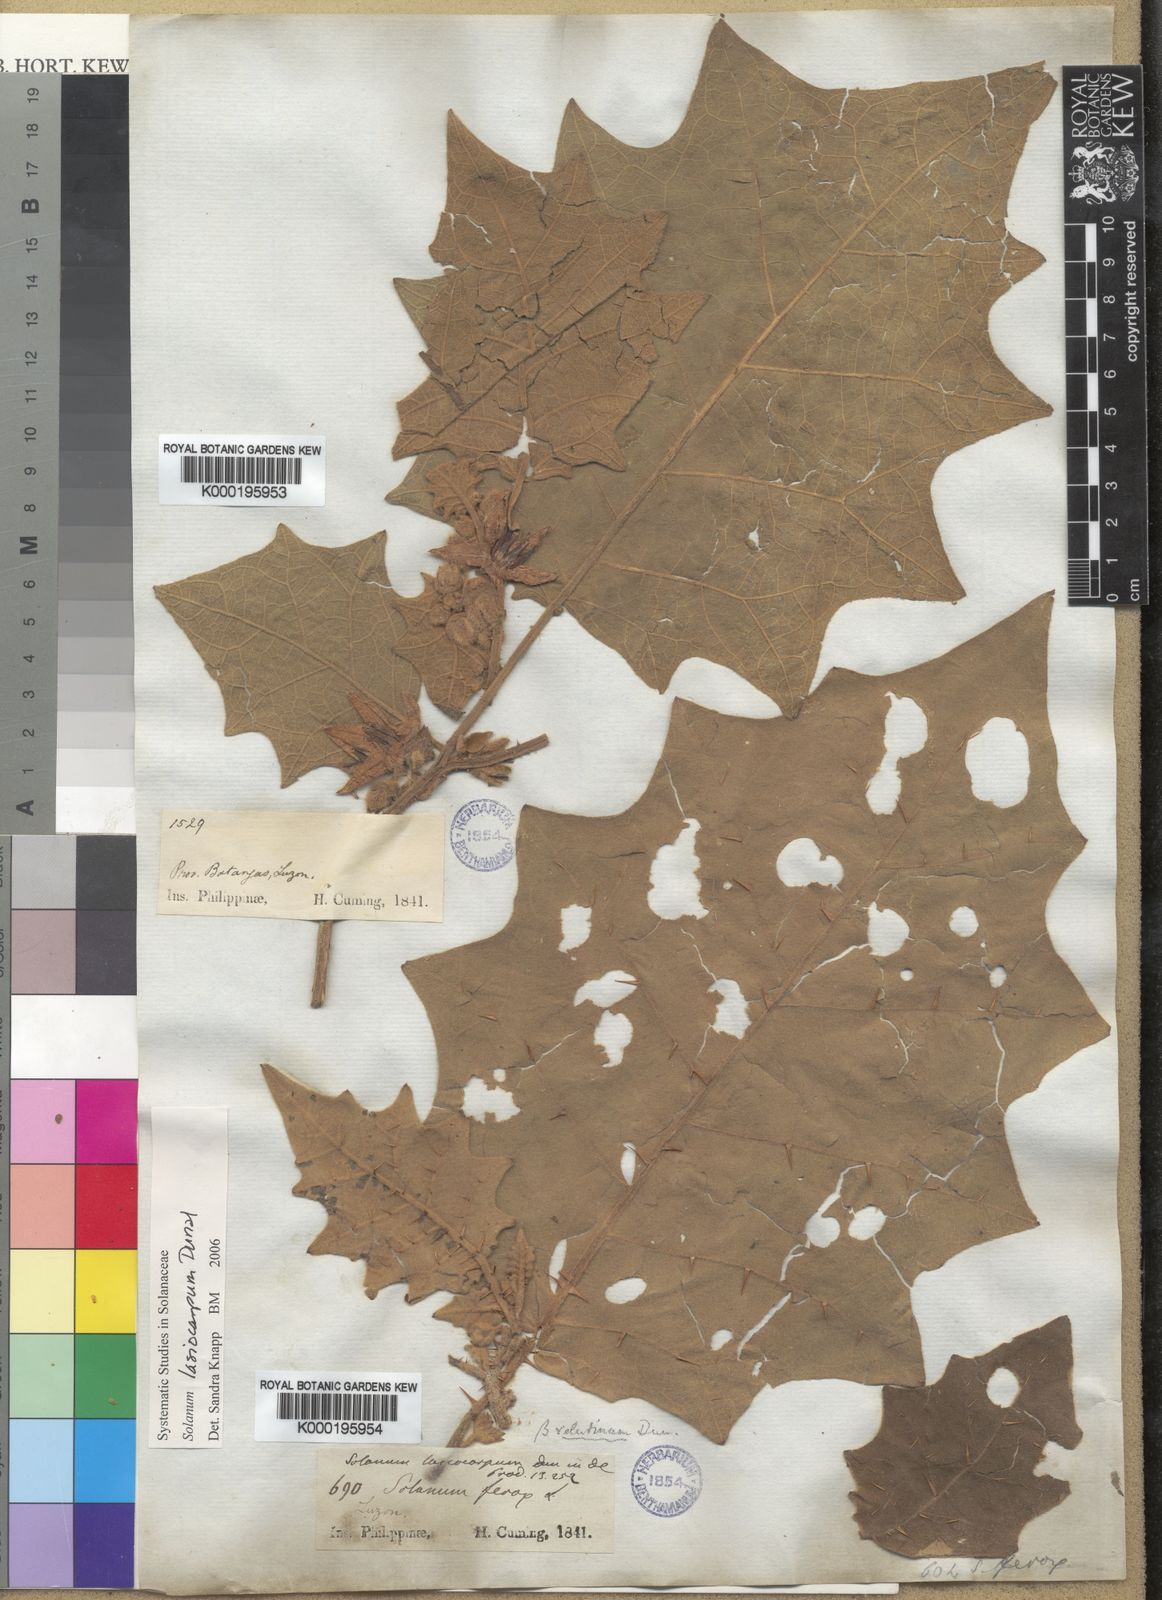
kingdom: Plantae
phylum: Tracheophyta
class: Magnoliopsida
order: Solanales
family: Solanaceae
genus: Solanum
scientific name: Solanum lasiocarpum
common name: Indian nightshade
